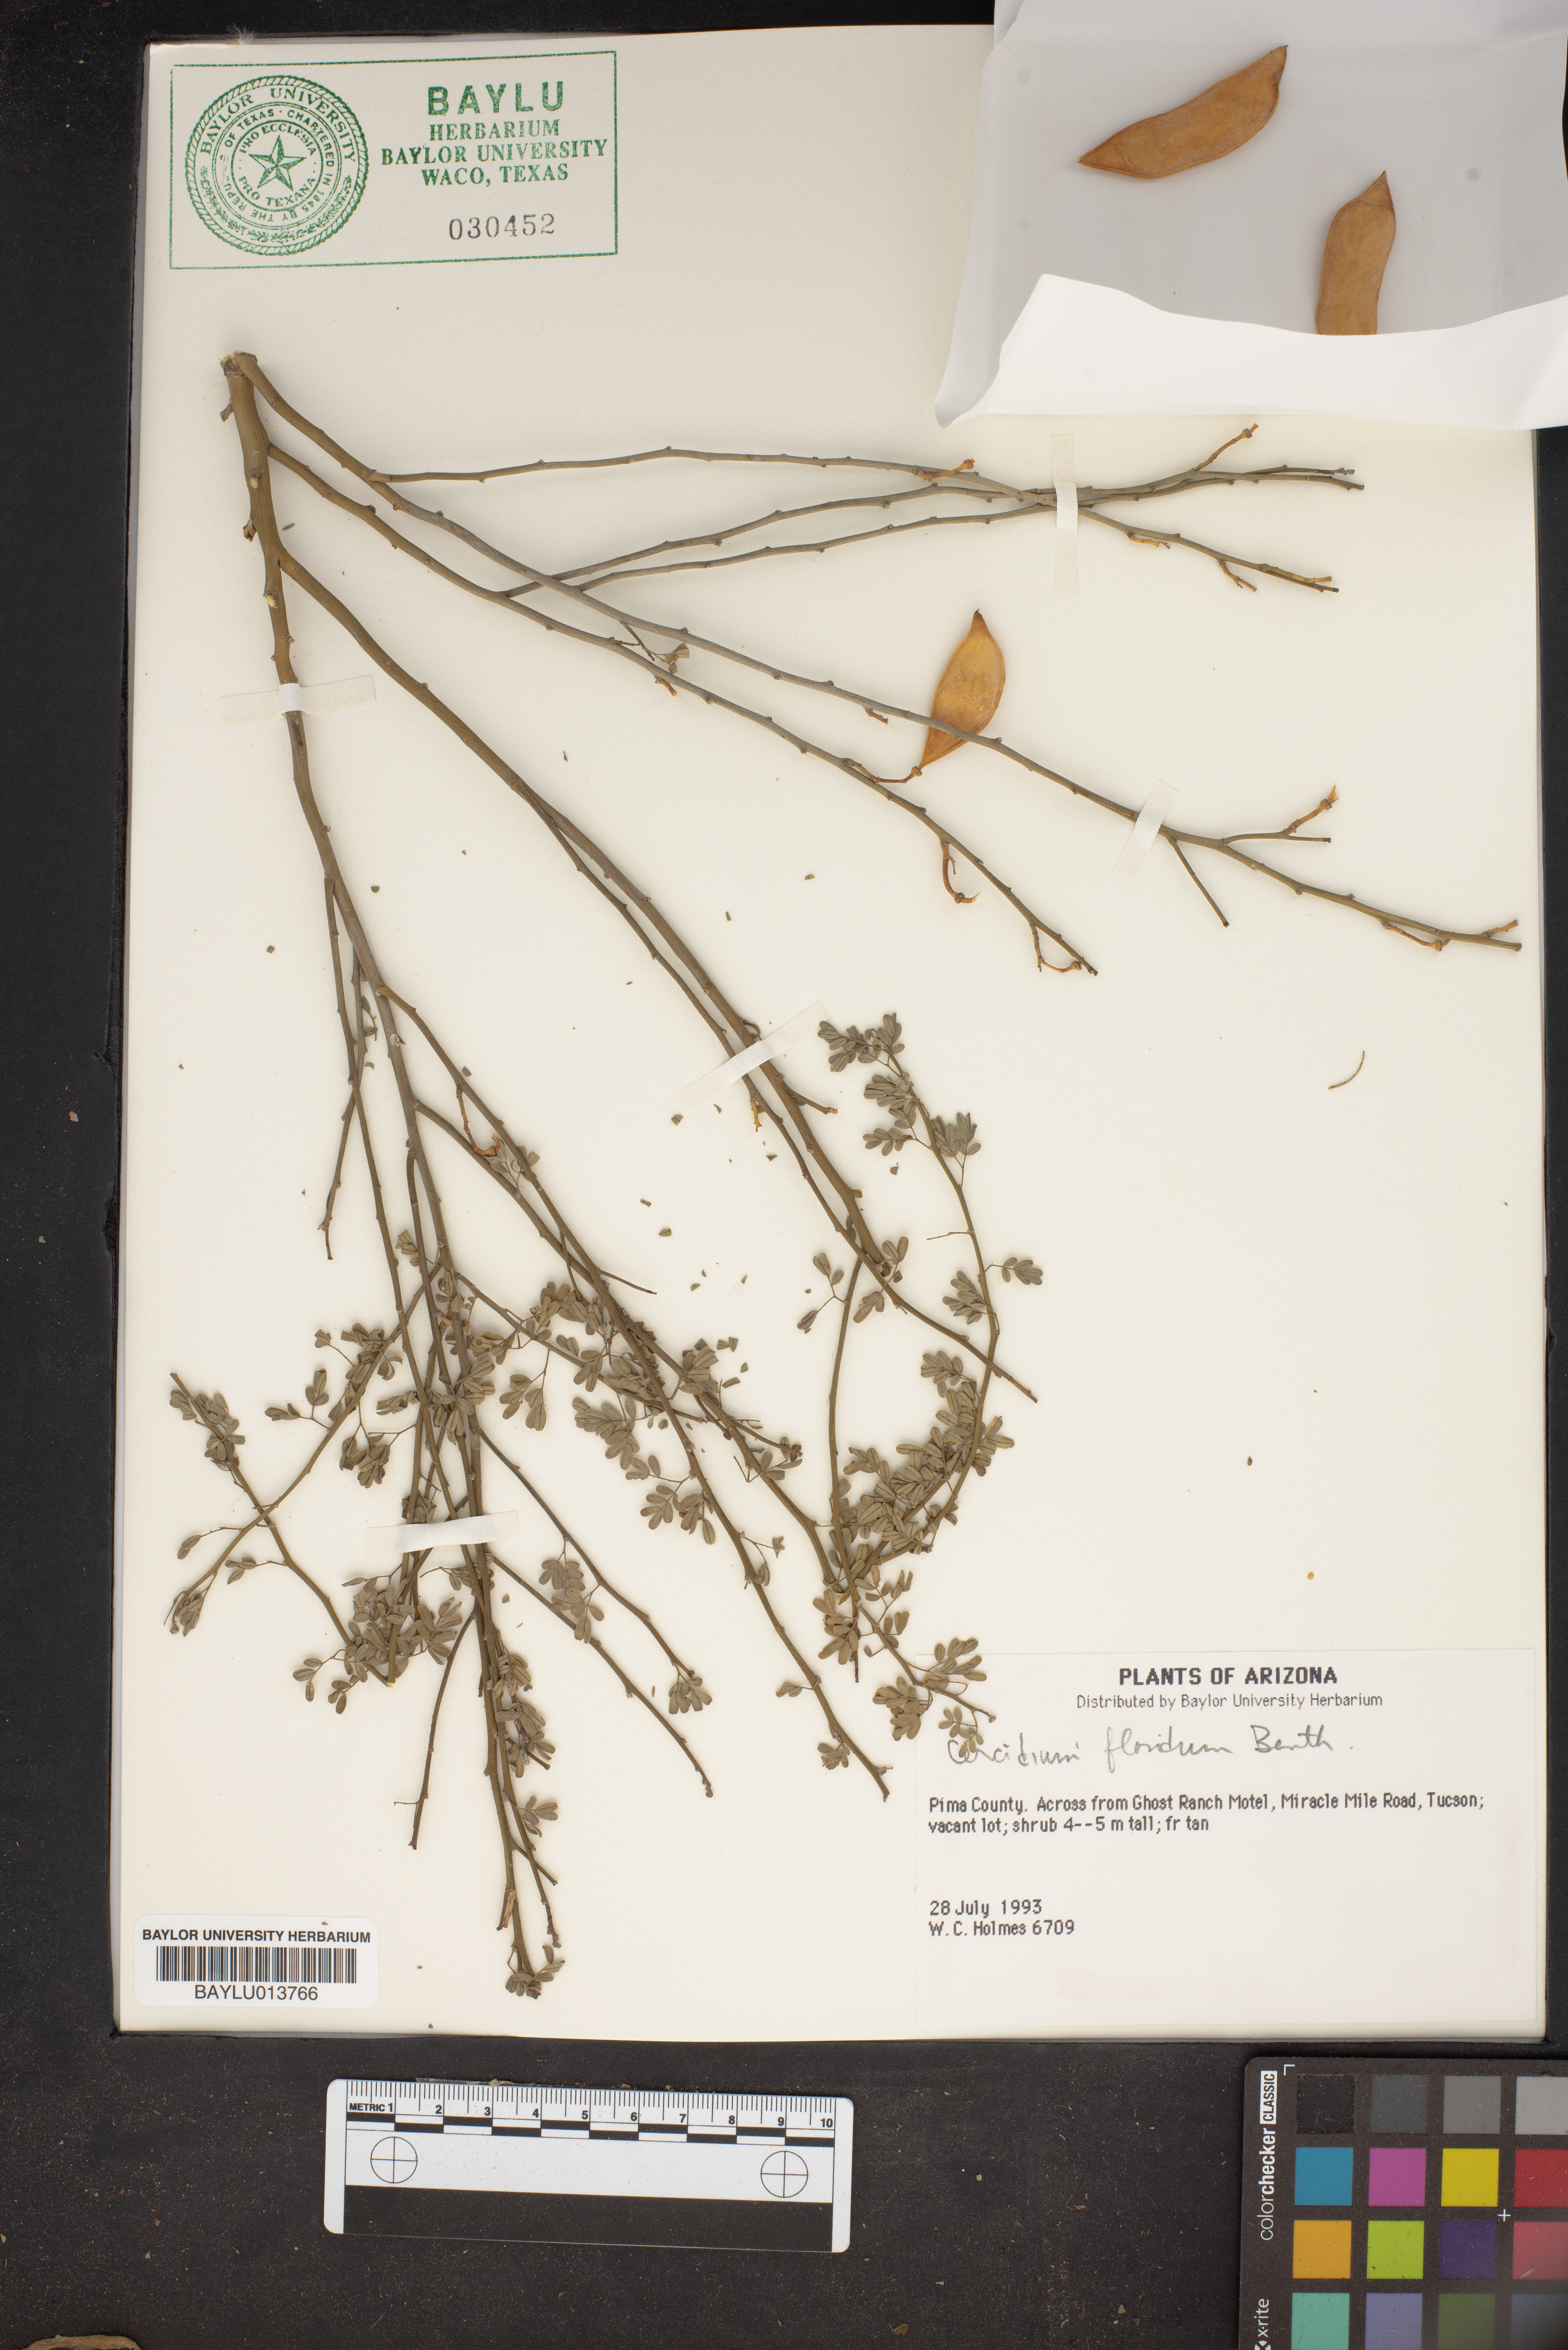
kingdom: Plantae
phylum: Tracheophyta
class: Magnoliopsida
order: Fabales
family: Fabaceae
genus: Parkinsonia
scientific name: Parkinsonia florida
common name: Blue paloverde
